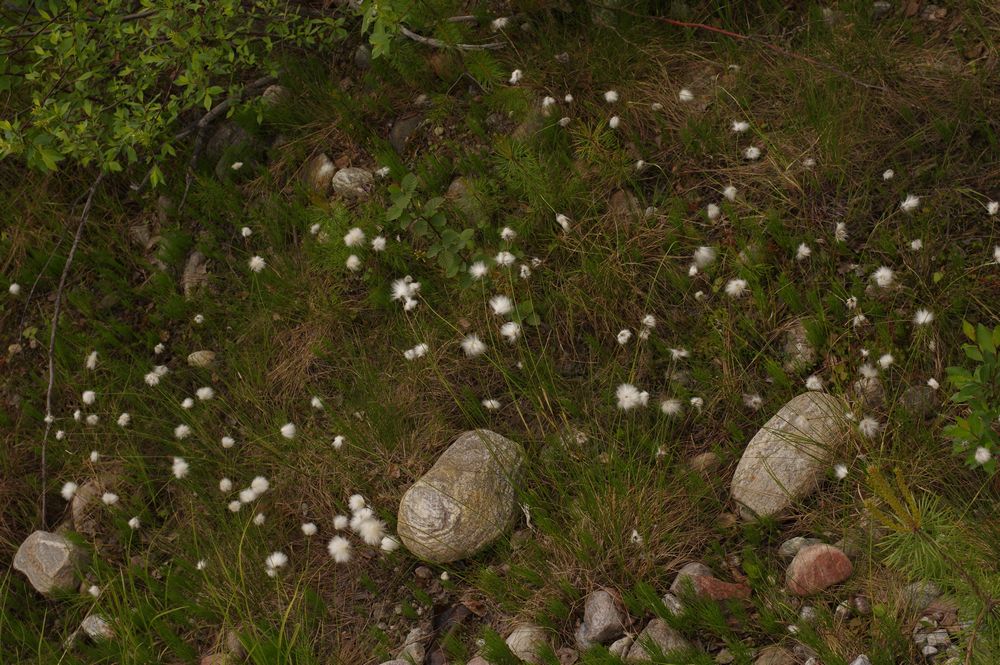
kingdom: Plantae
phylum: Tracheophyta
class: Liliopsida
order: Poales
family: Cyperaceae
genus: Eriophorum
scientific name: Eriophorum vaginatum
